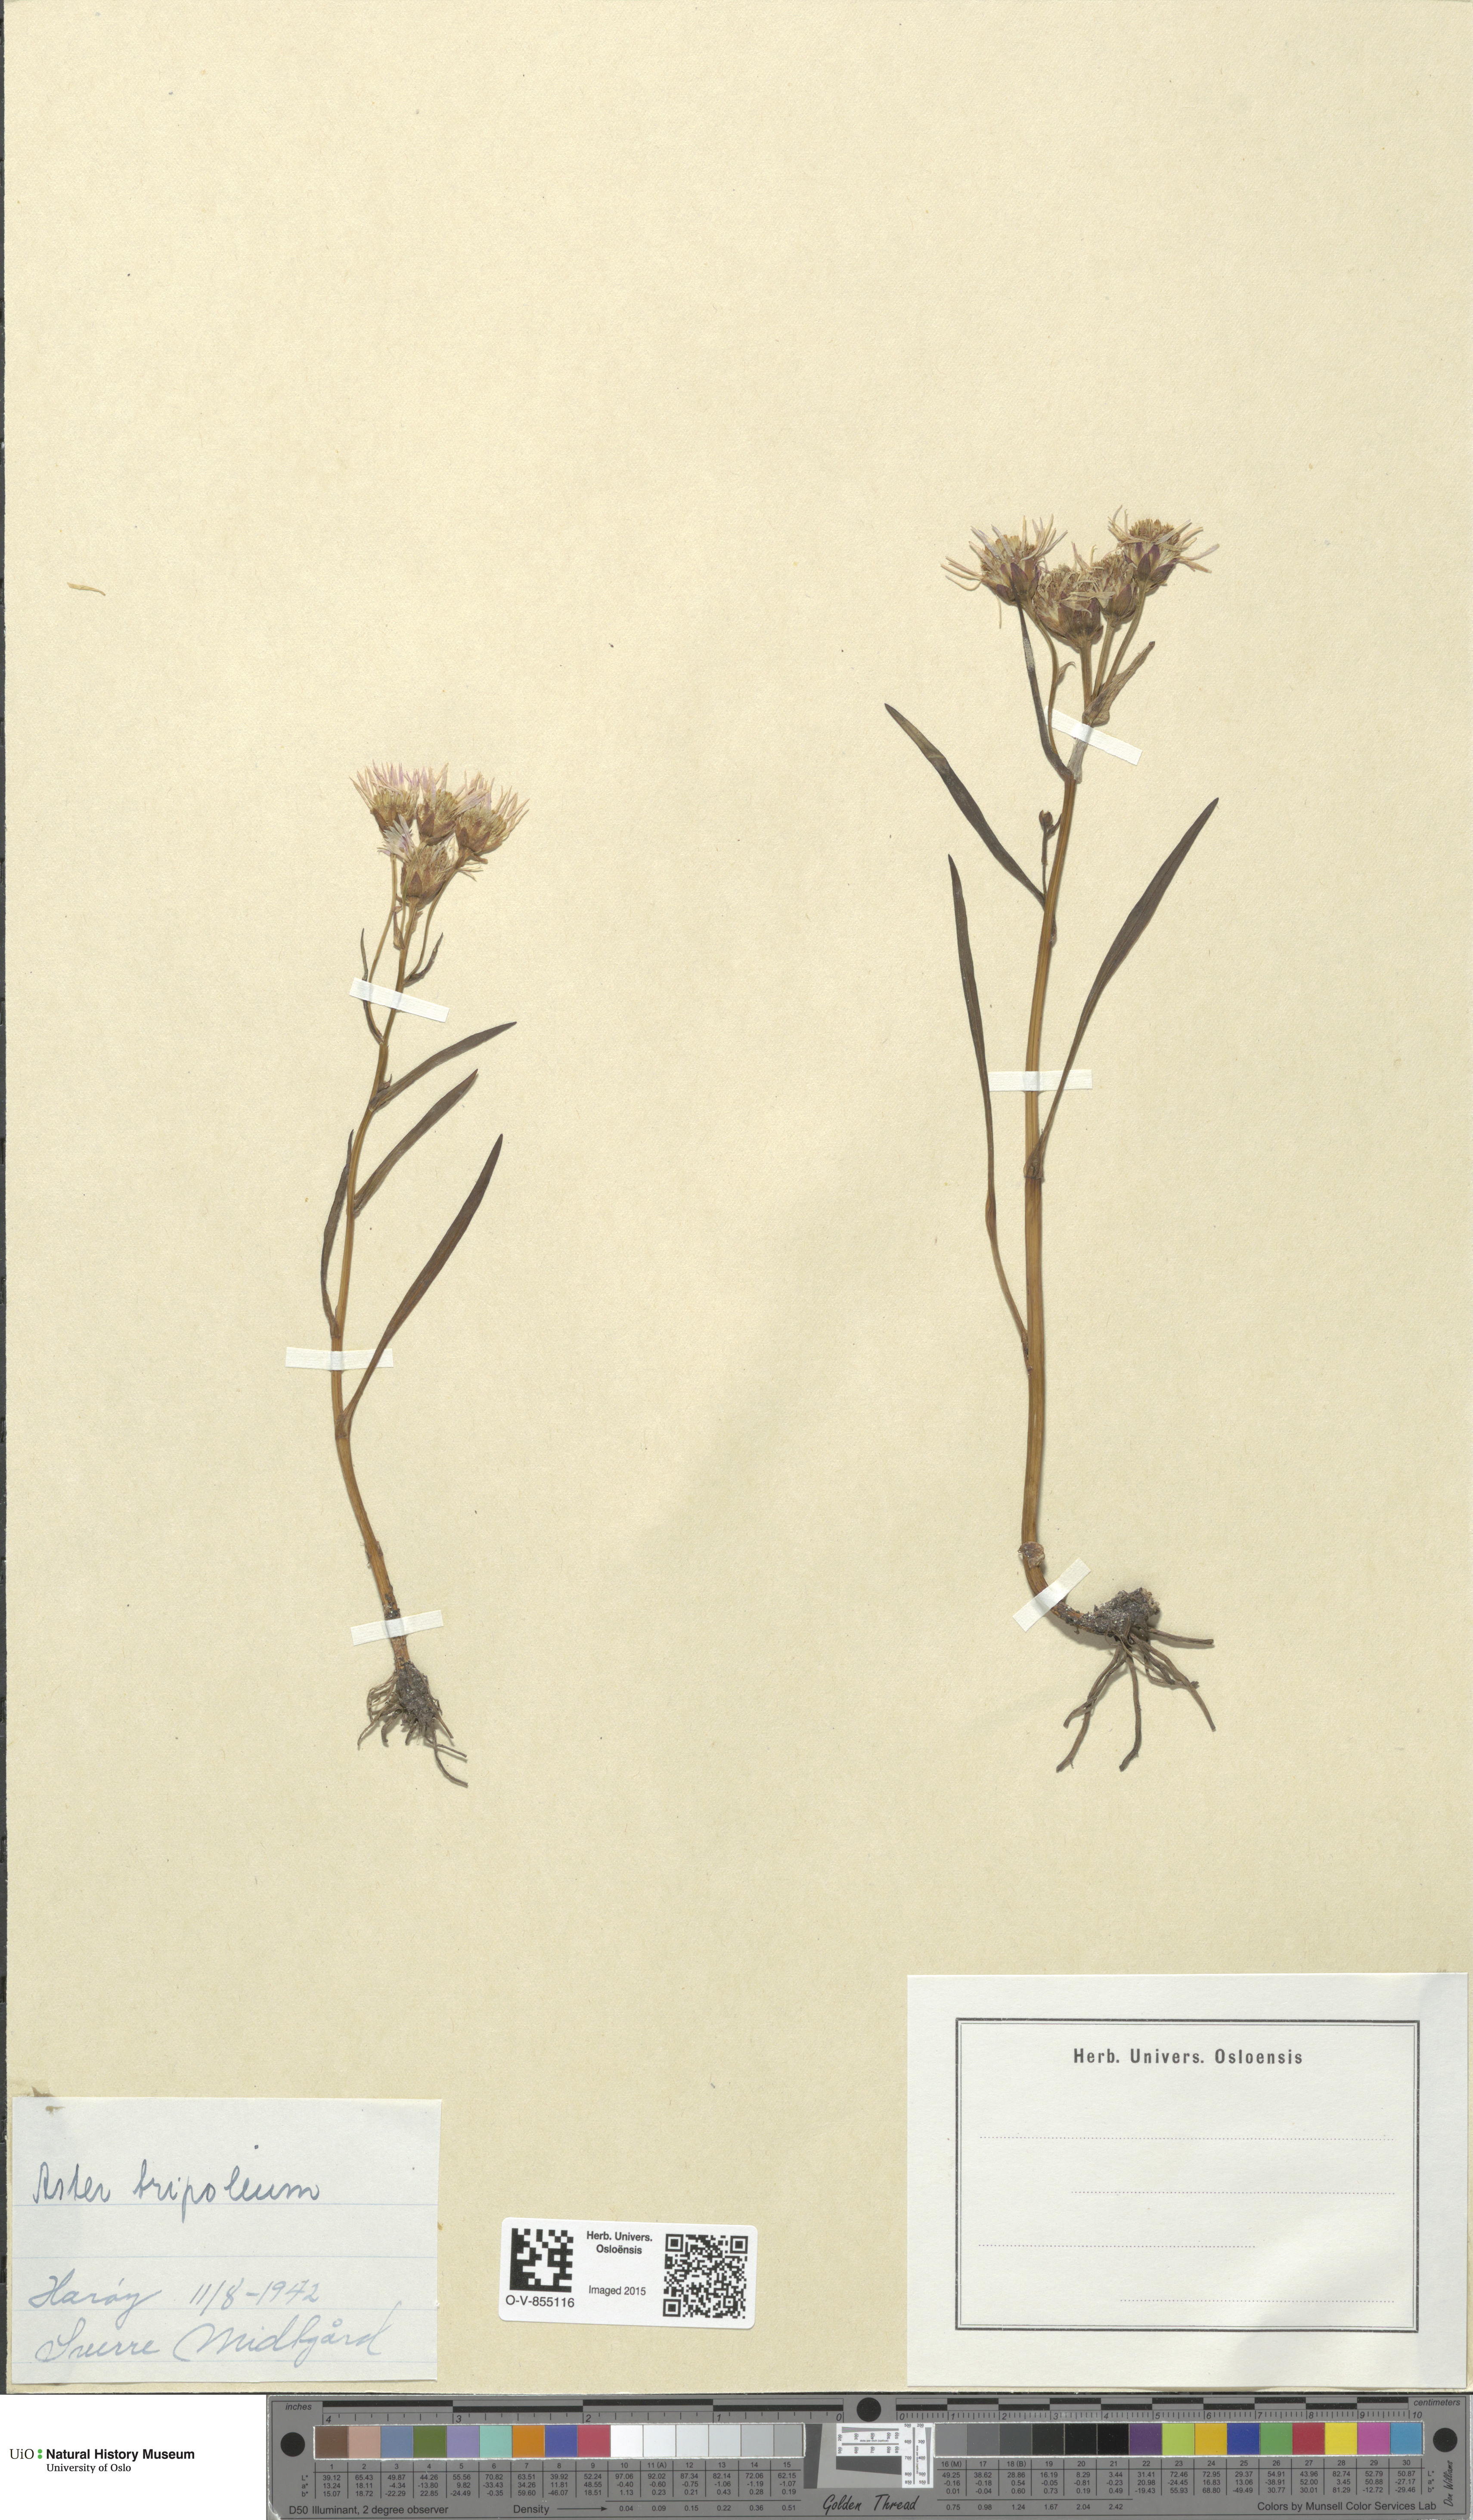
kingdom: Plantae
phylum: Tracheophyta
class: Magnoliopsida
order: Asterales
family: Asteraceae
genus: Tripolium
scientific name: Tripolium pannonicum
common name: Sea aster
